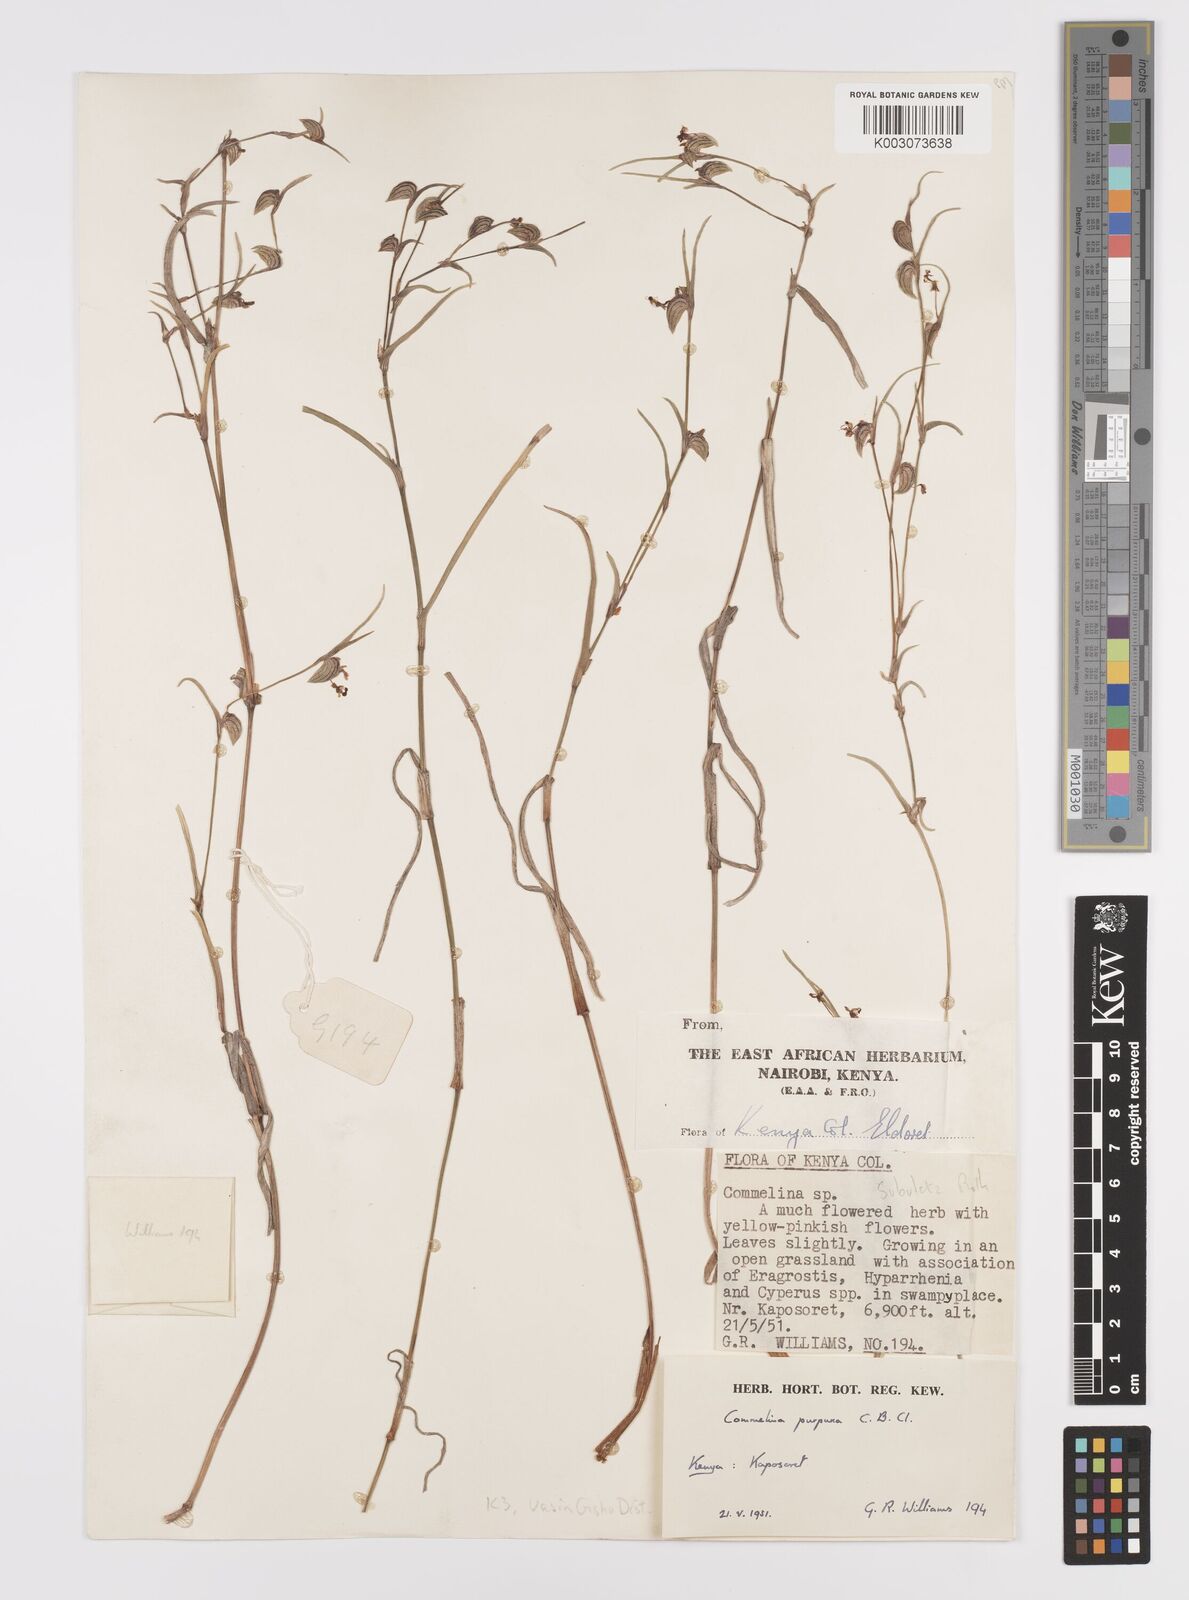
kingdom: Plantae
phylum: Tracheophyta
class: Liliopsida
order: Commelinales
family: Commelinaceae
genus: Commelina
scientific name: Commelina purpurea
